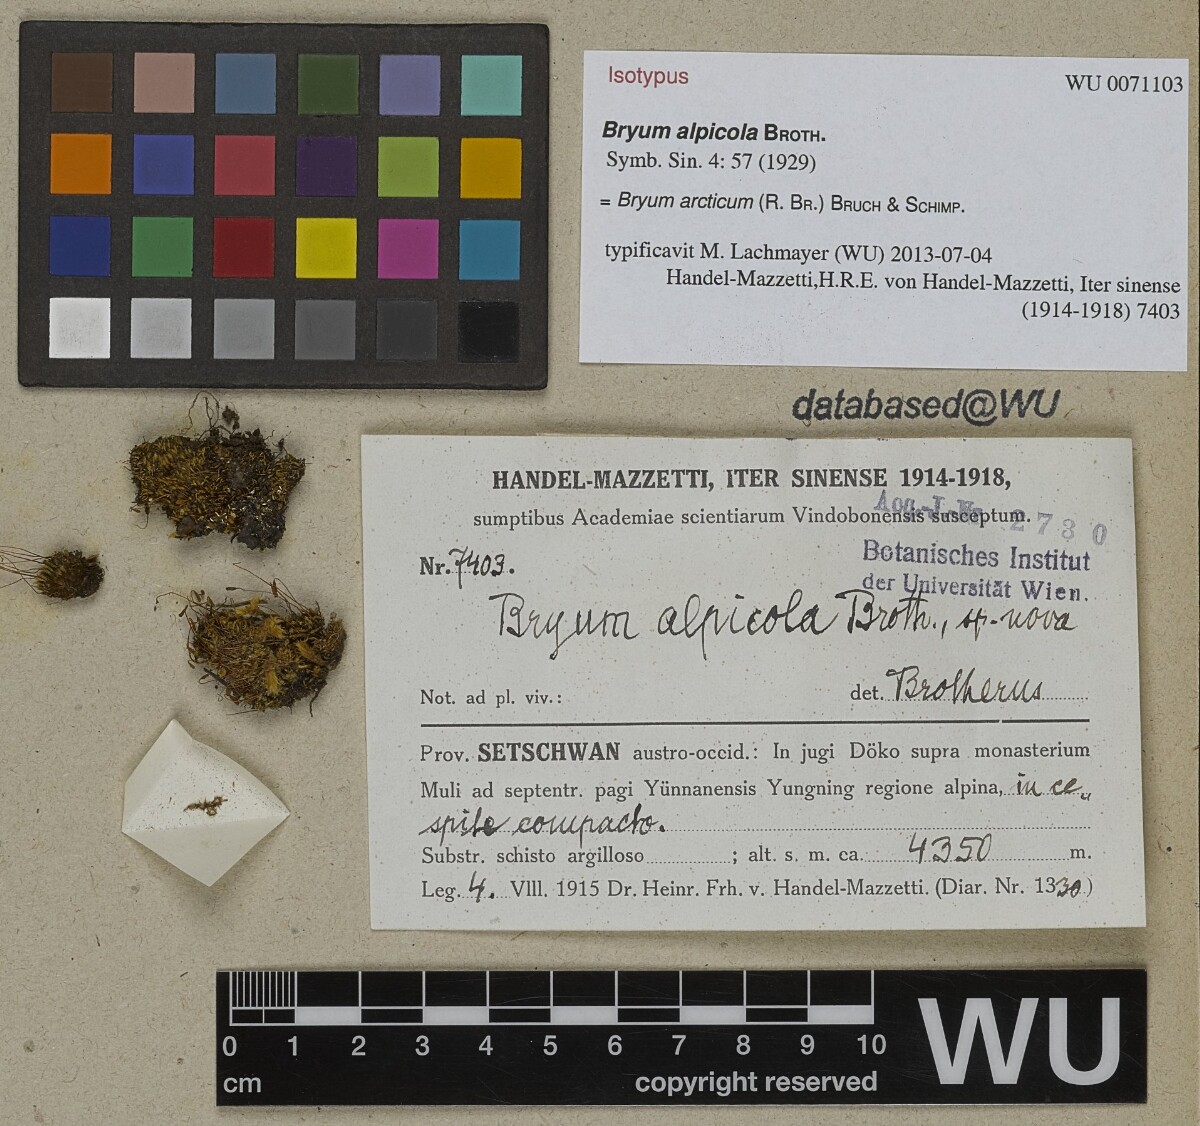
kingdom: Plantae
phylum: Bryophyta
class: Bryopsida
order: Bryales
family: Bryaceae
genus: Ptychostomum
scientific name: Ptychostomum arcticum
